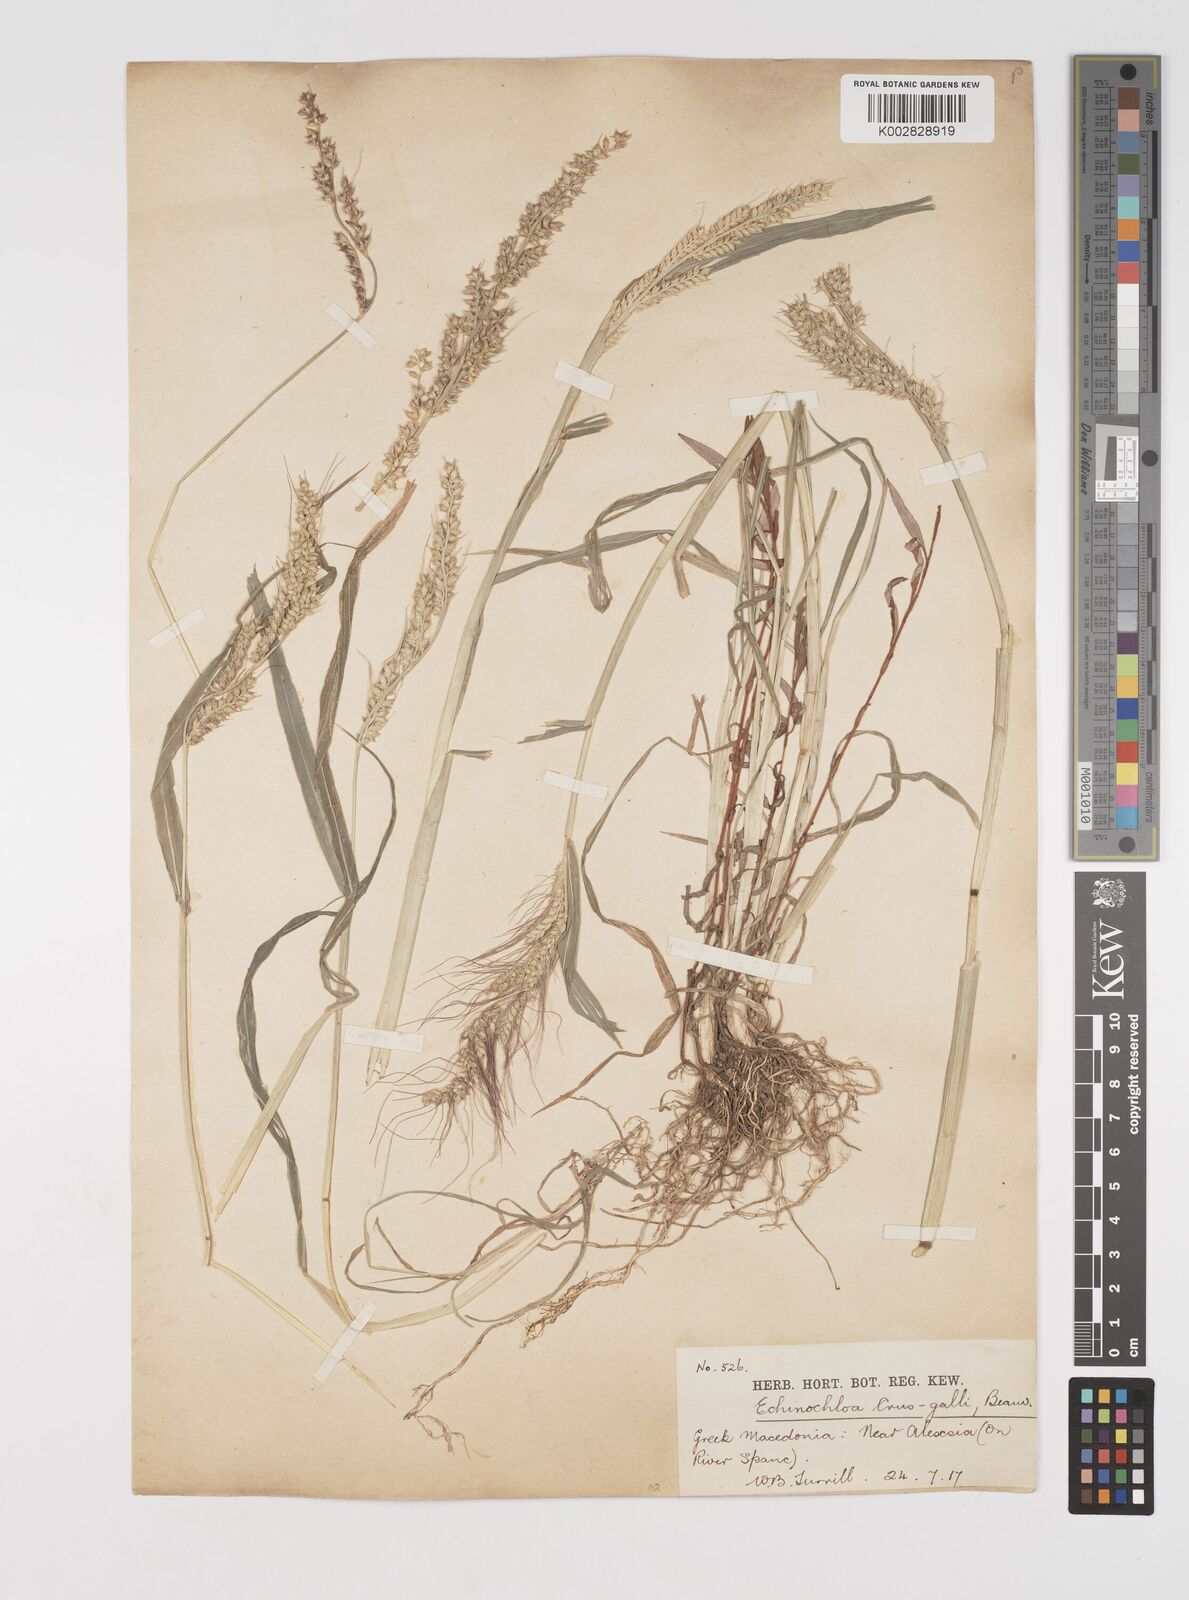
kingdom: Plantae
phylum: Tracheophyta
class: Liliopsida
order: Poales
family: Poaceae
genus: Echinochloa
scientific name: Echinochloa crus-galli
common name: Cockspur
